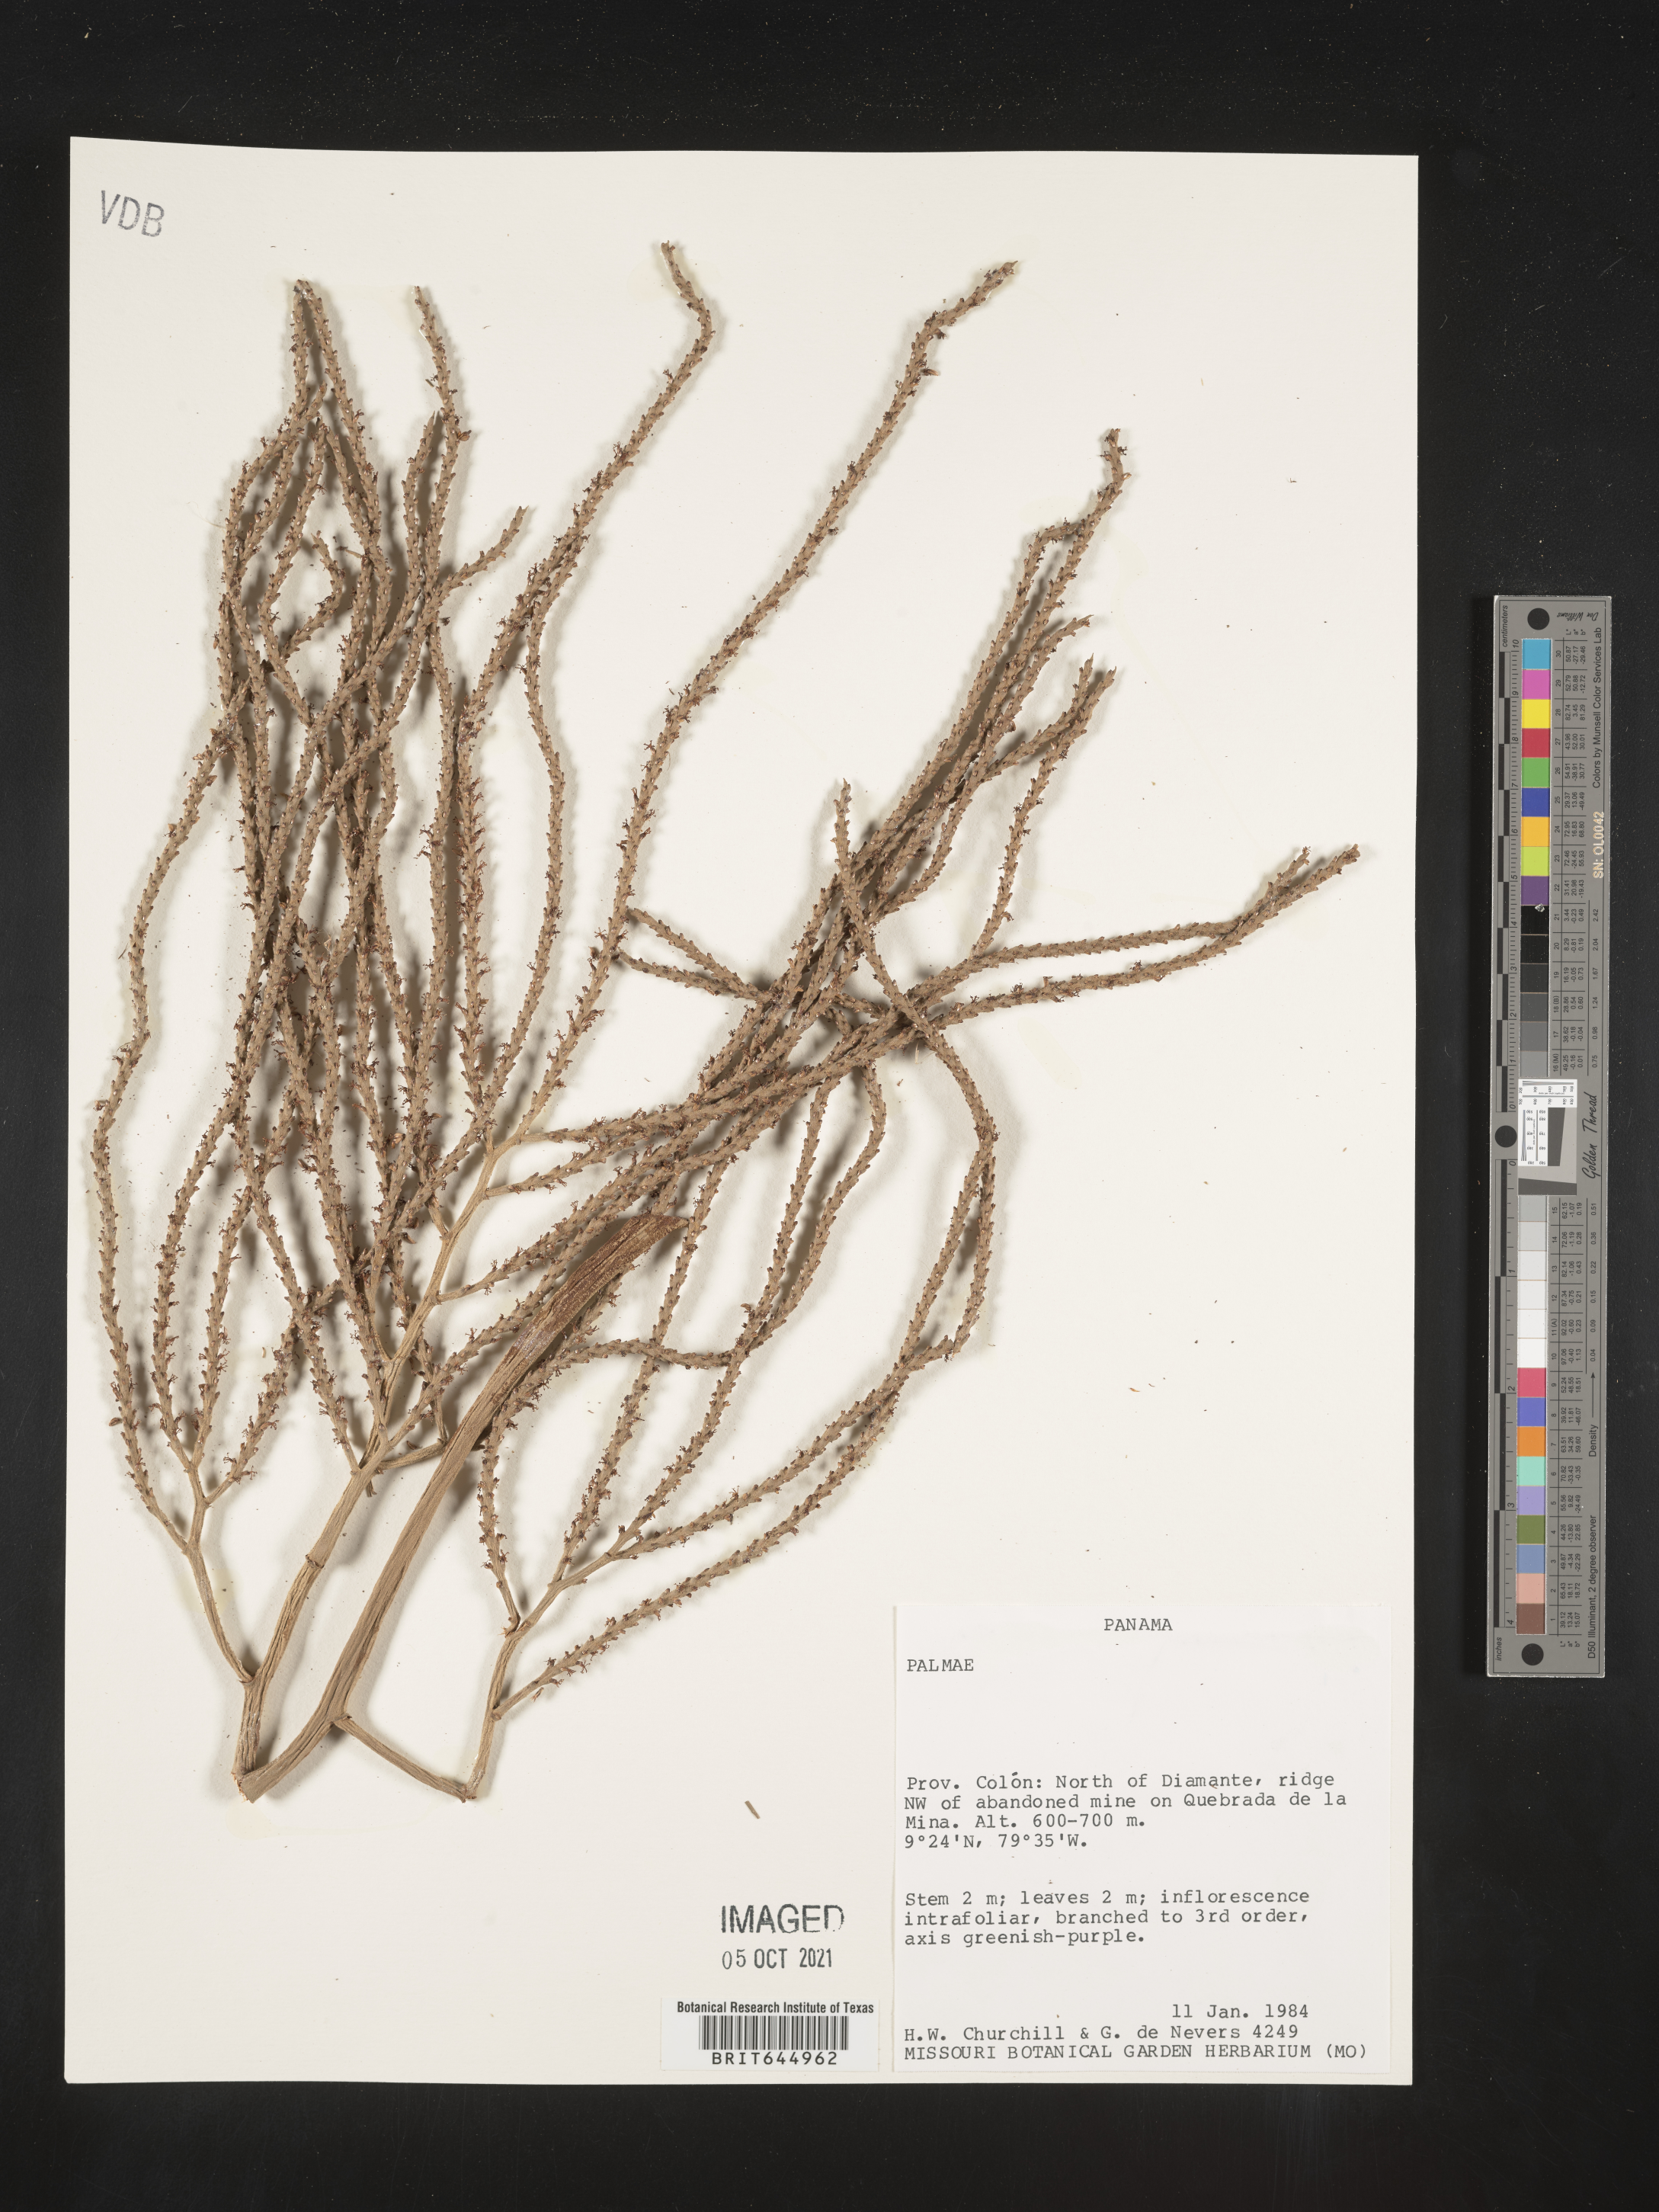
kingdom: Plantae
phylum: Tracheophyta
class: Liliopsida
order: Arecales
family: Arecaceae
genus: Geonoma
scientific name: Geonoma
